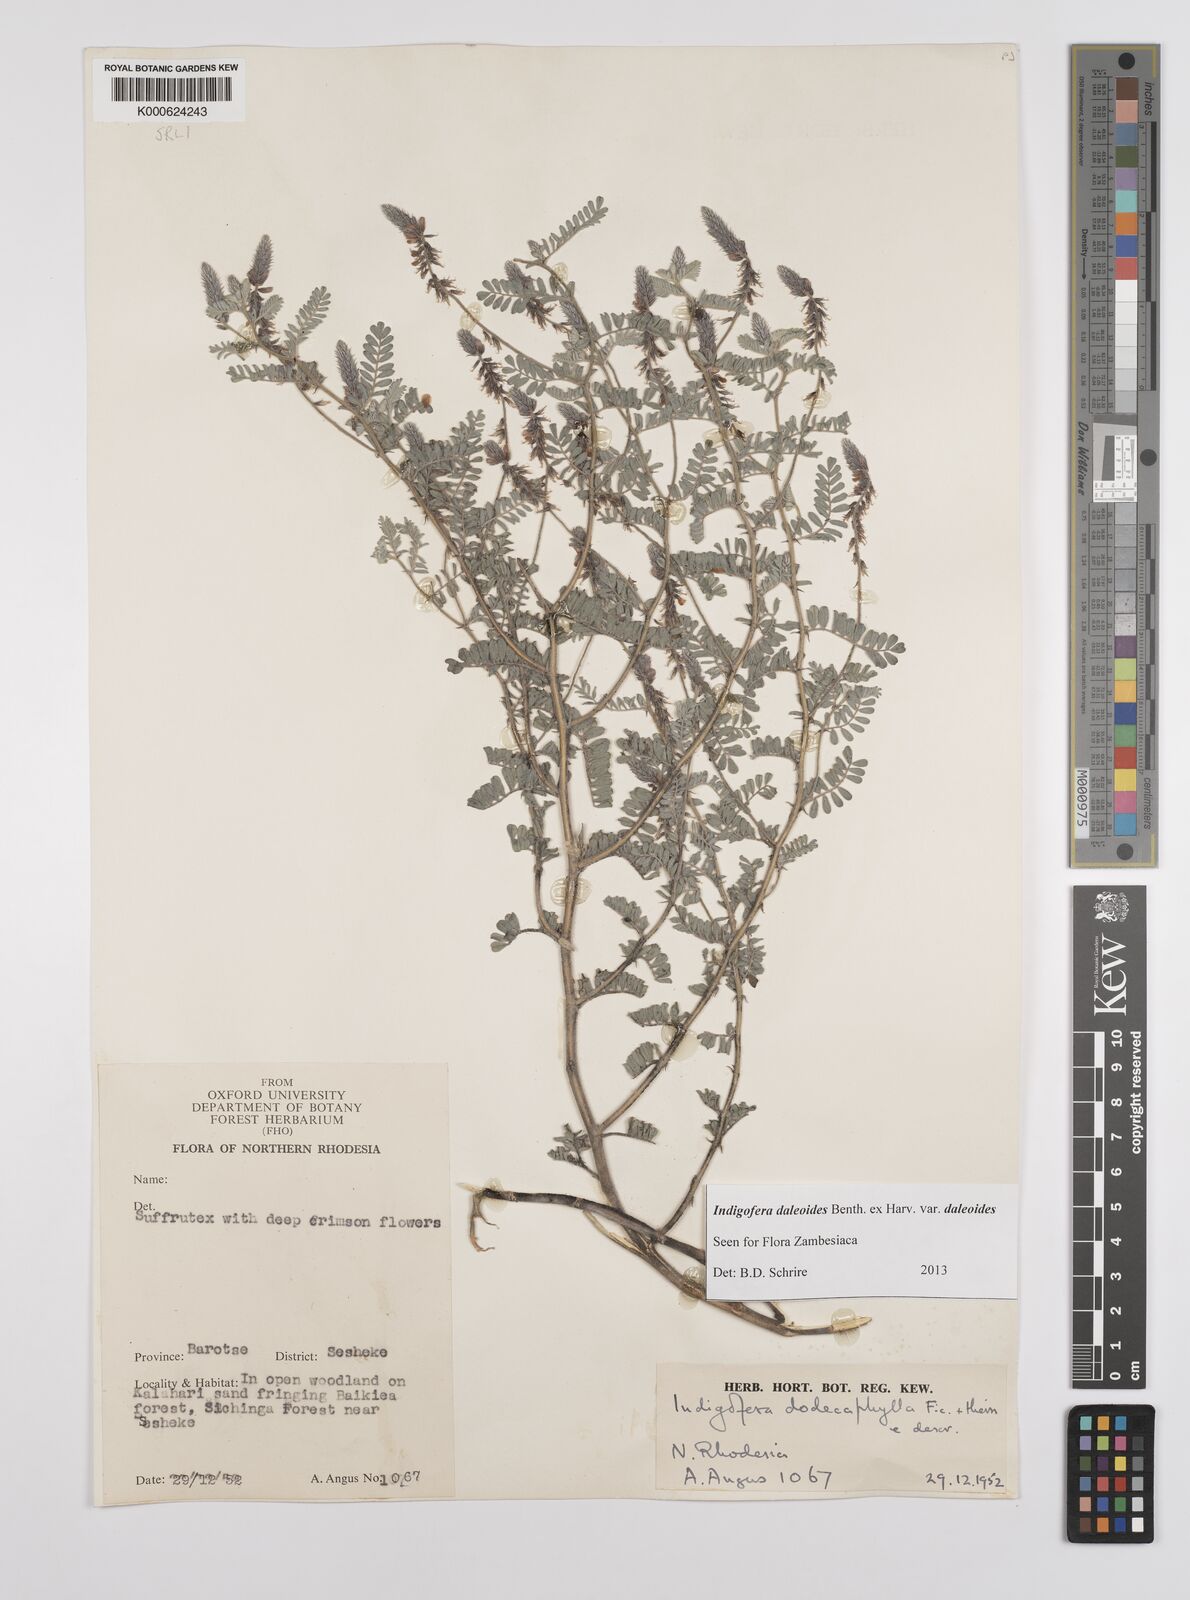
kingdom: Plantae
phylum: Tracheophyta
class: Magnoliopsida
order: Fabales
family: Fabaceae
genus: Indigofera
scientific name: Indigofera daleoides
